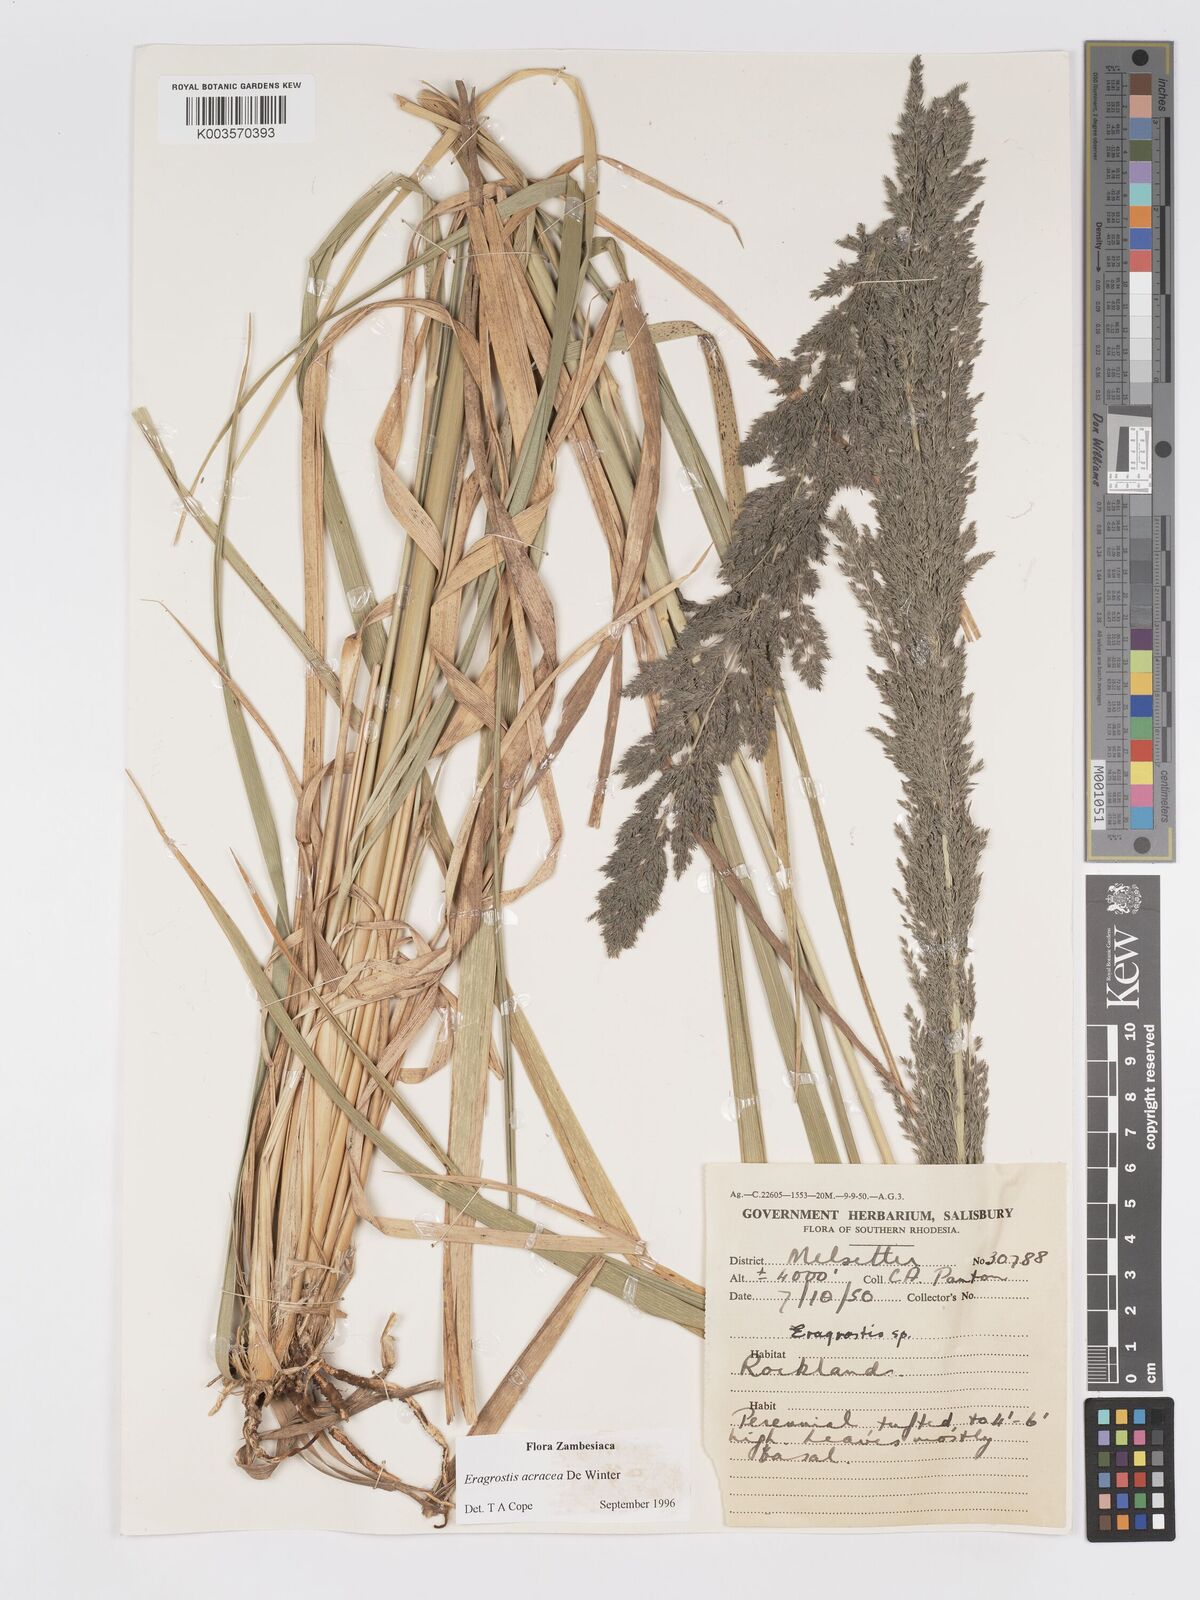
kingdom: Plantae
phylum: Tracheophyta
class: Liliopsida
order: Poales
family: Poaceae
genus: Eragrostis
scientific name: Eragrostis acraea
